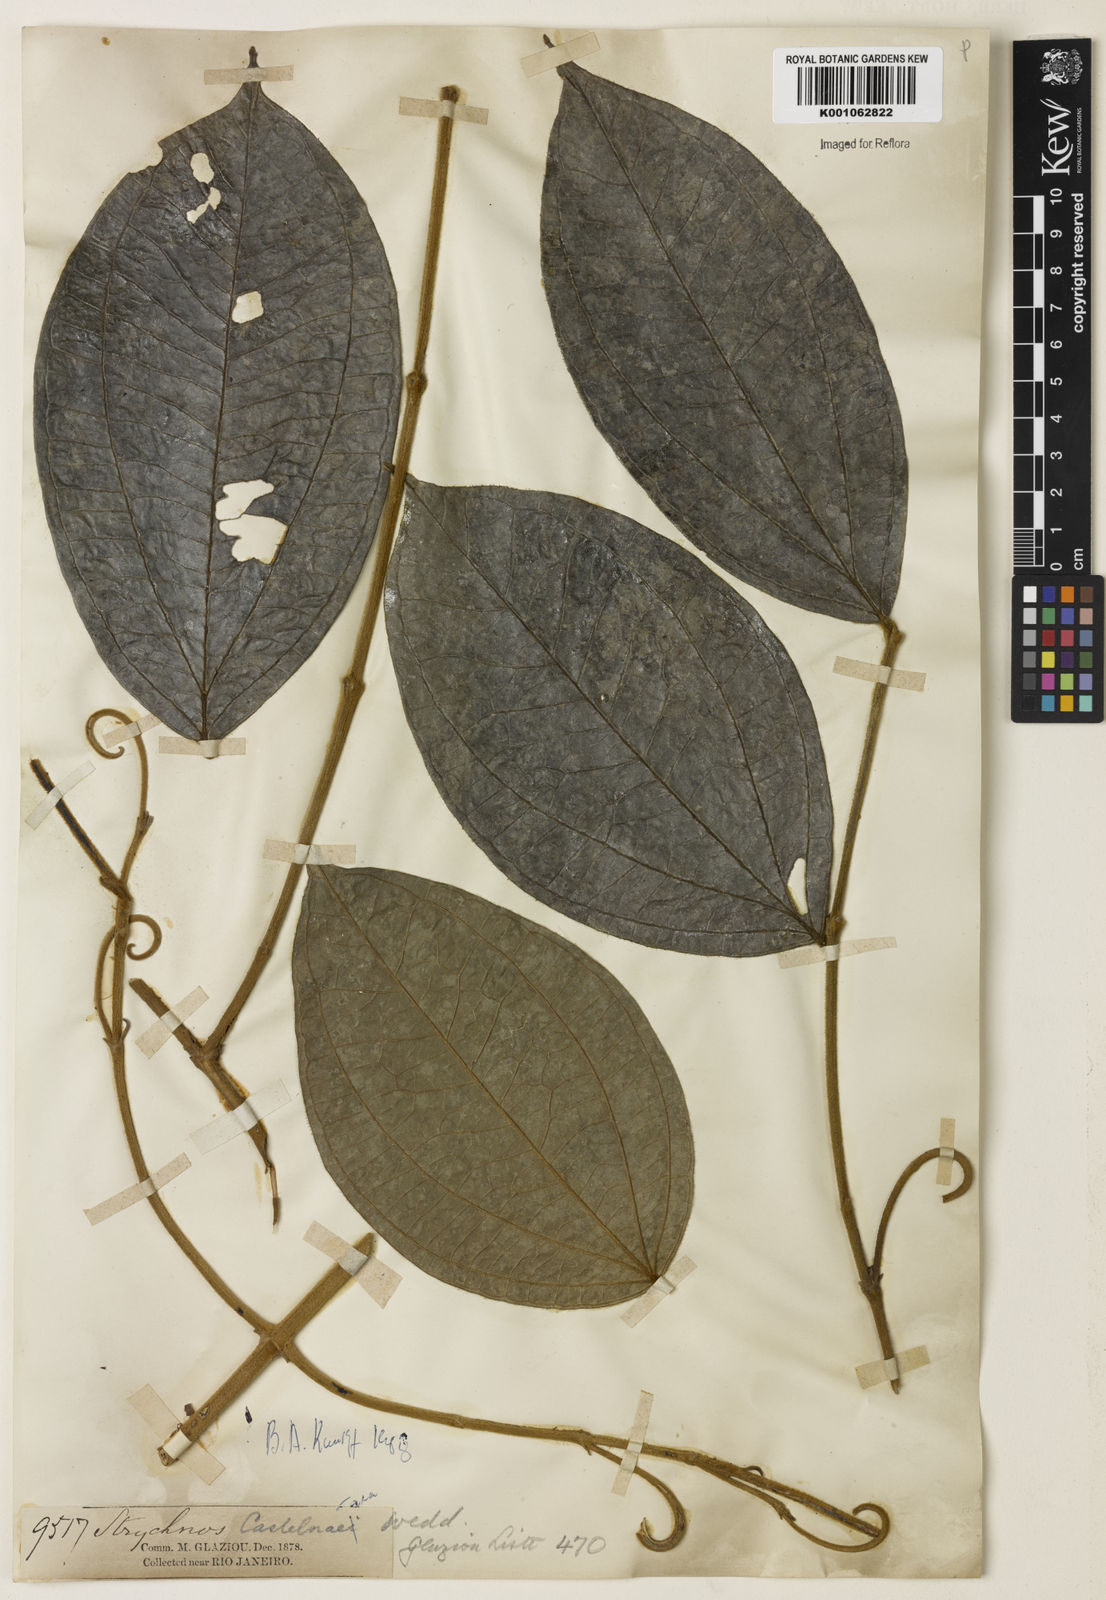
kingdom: Plantae
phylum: Tracheophyta
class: Magnoliopsida
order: Gentianales
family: Loganiaceae
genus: Strychnos
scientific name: Strychnos
